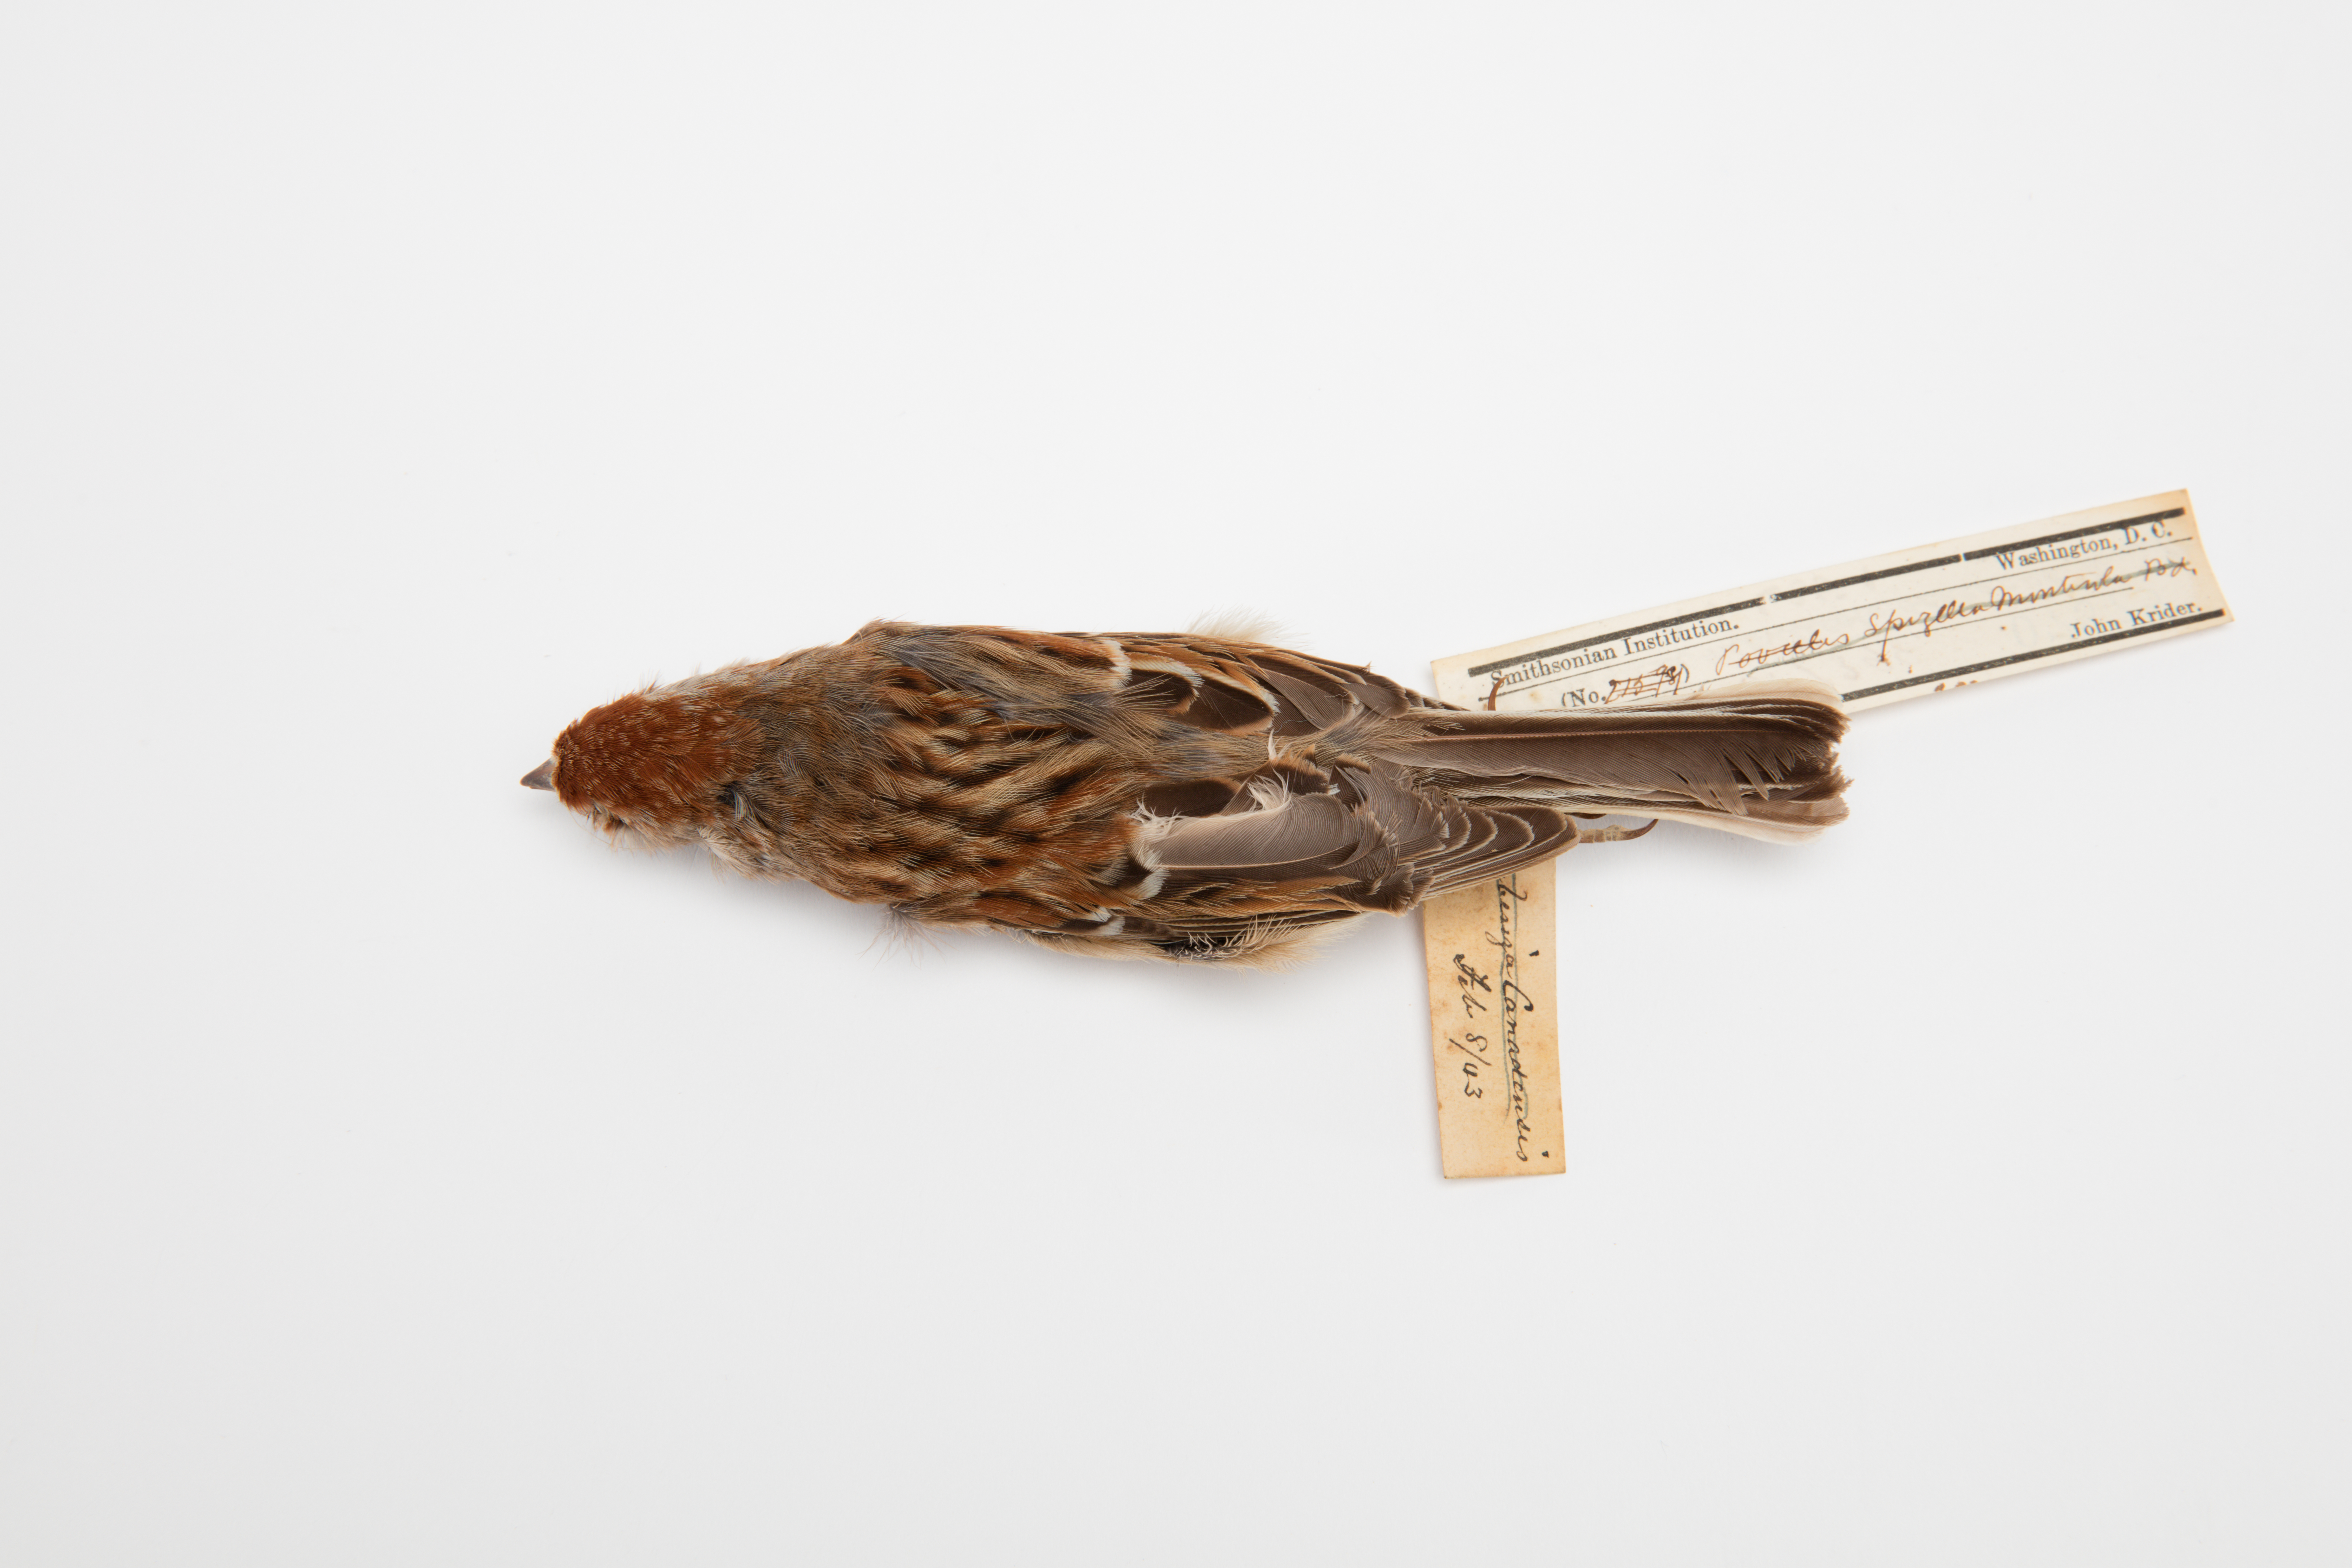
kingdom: Animalia
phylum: Chordata
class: Aves
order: Passeriformes
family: Passerellidae
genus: Spizelloides
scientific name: Spizelloides arborea
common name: American tree sparrow
